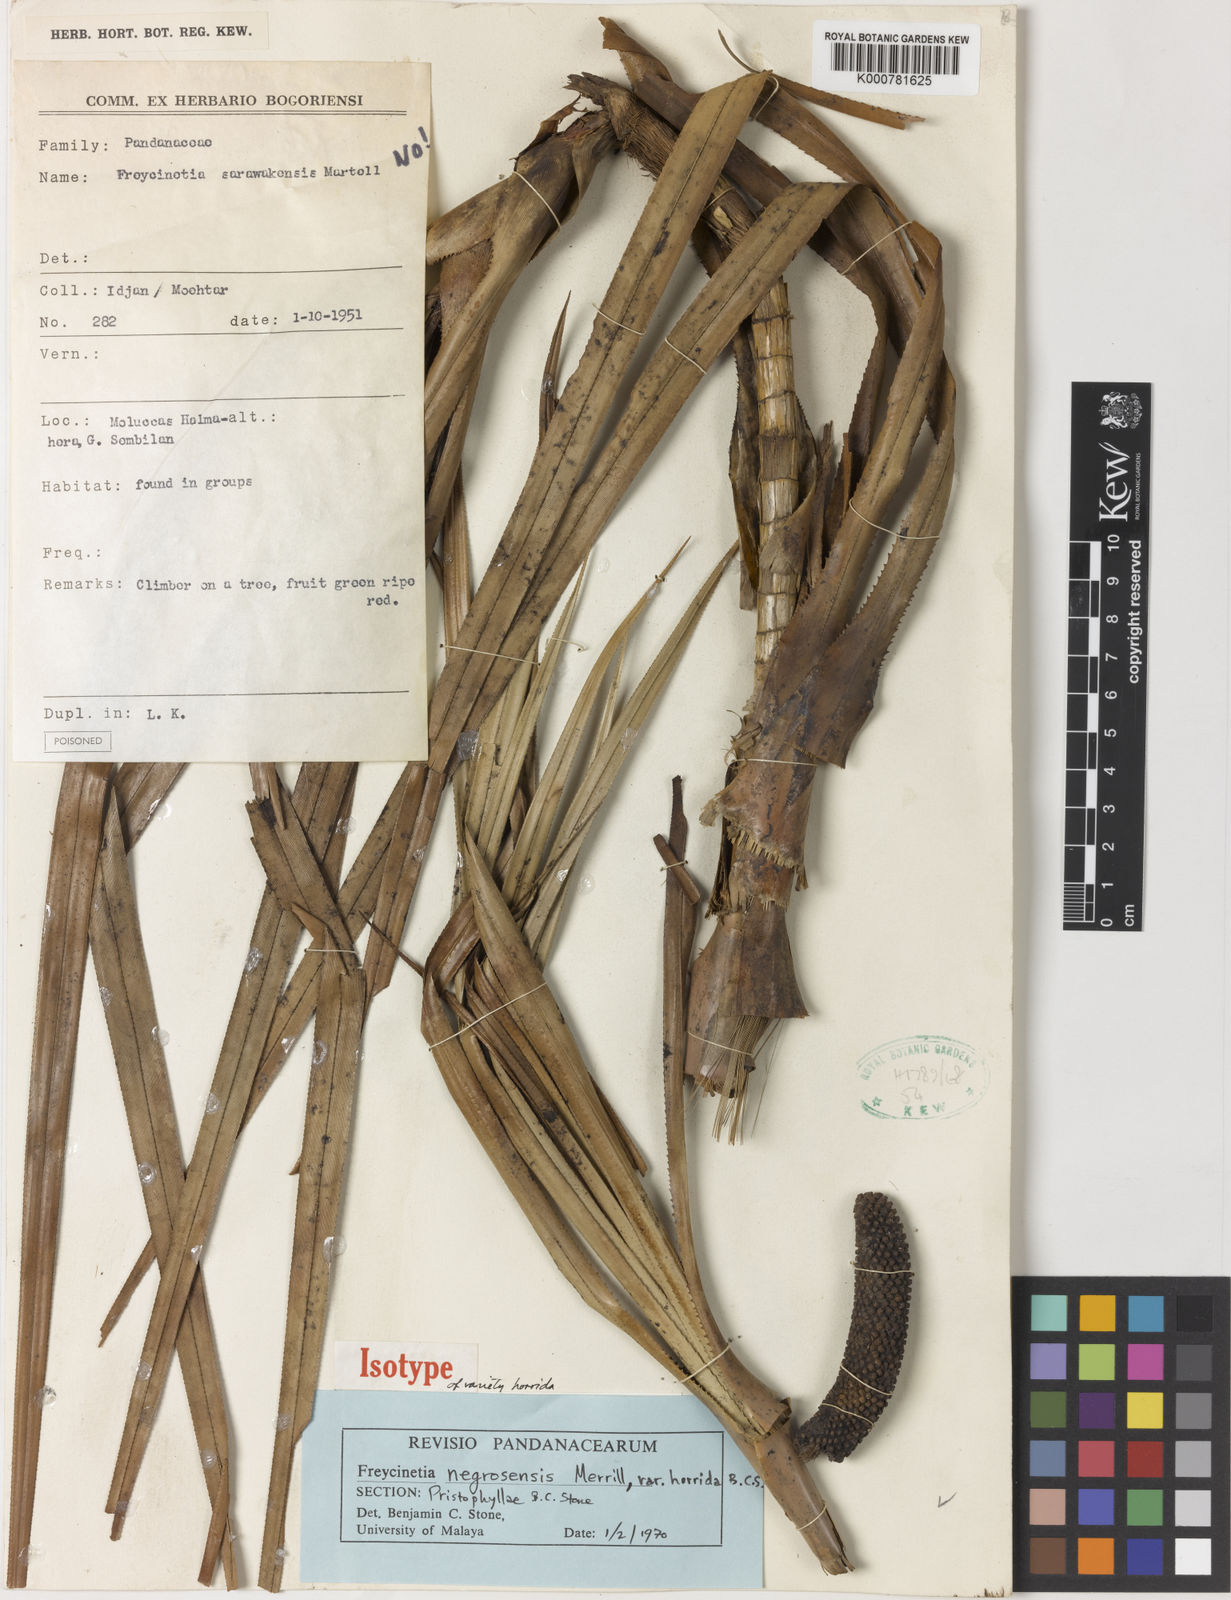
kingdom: Plantae
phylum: Tracheophyta
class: Liliopsida
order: Pandanales
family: Pandanaceae
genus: Freycinetia
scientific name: Freycinetia negrosensis
